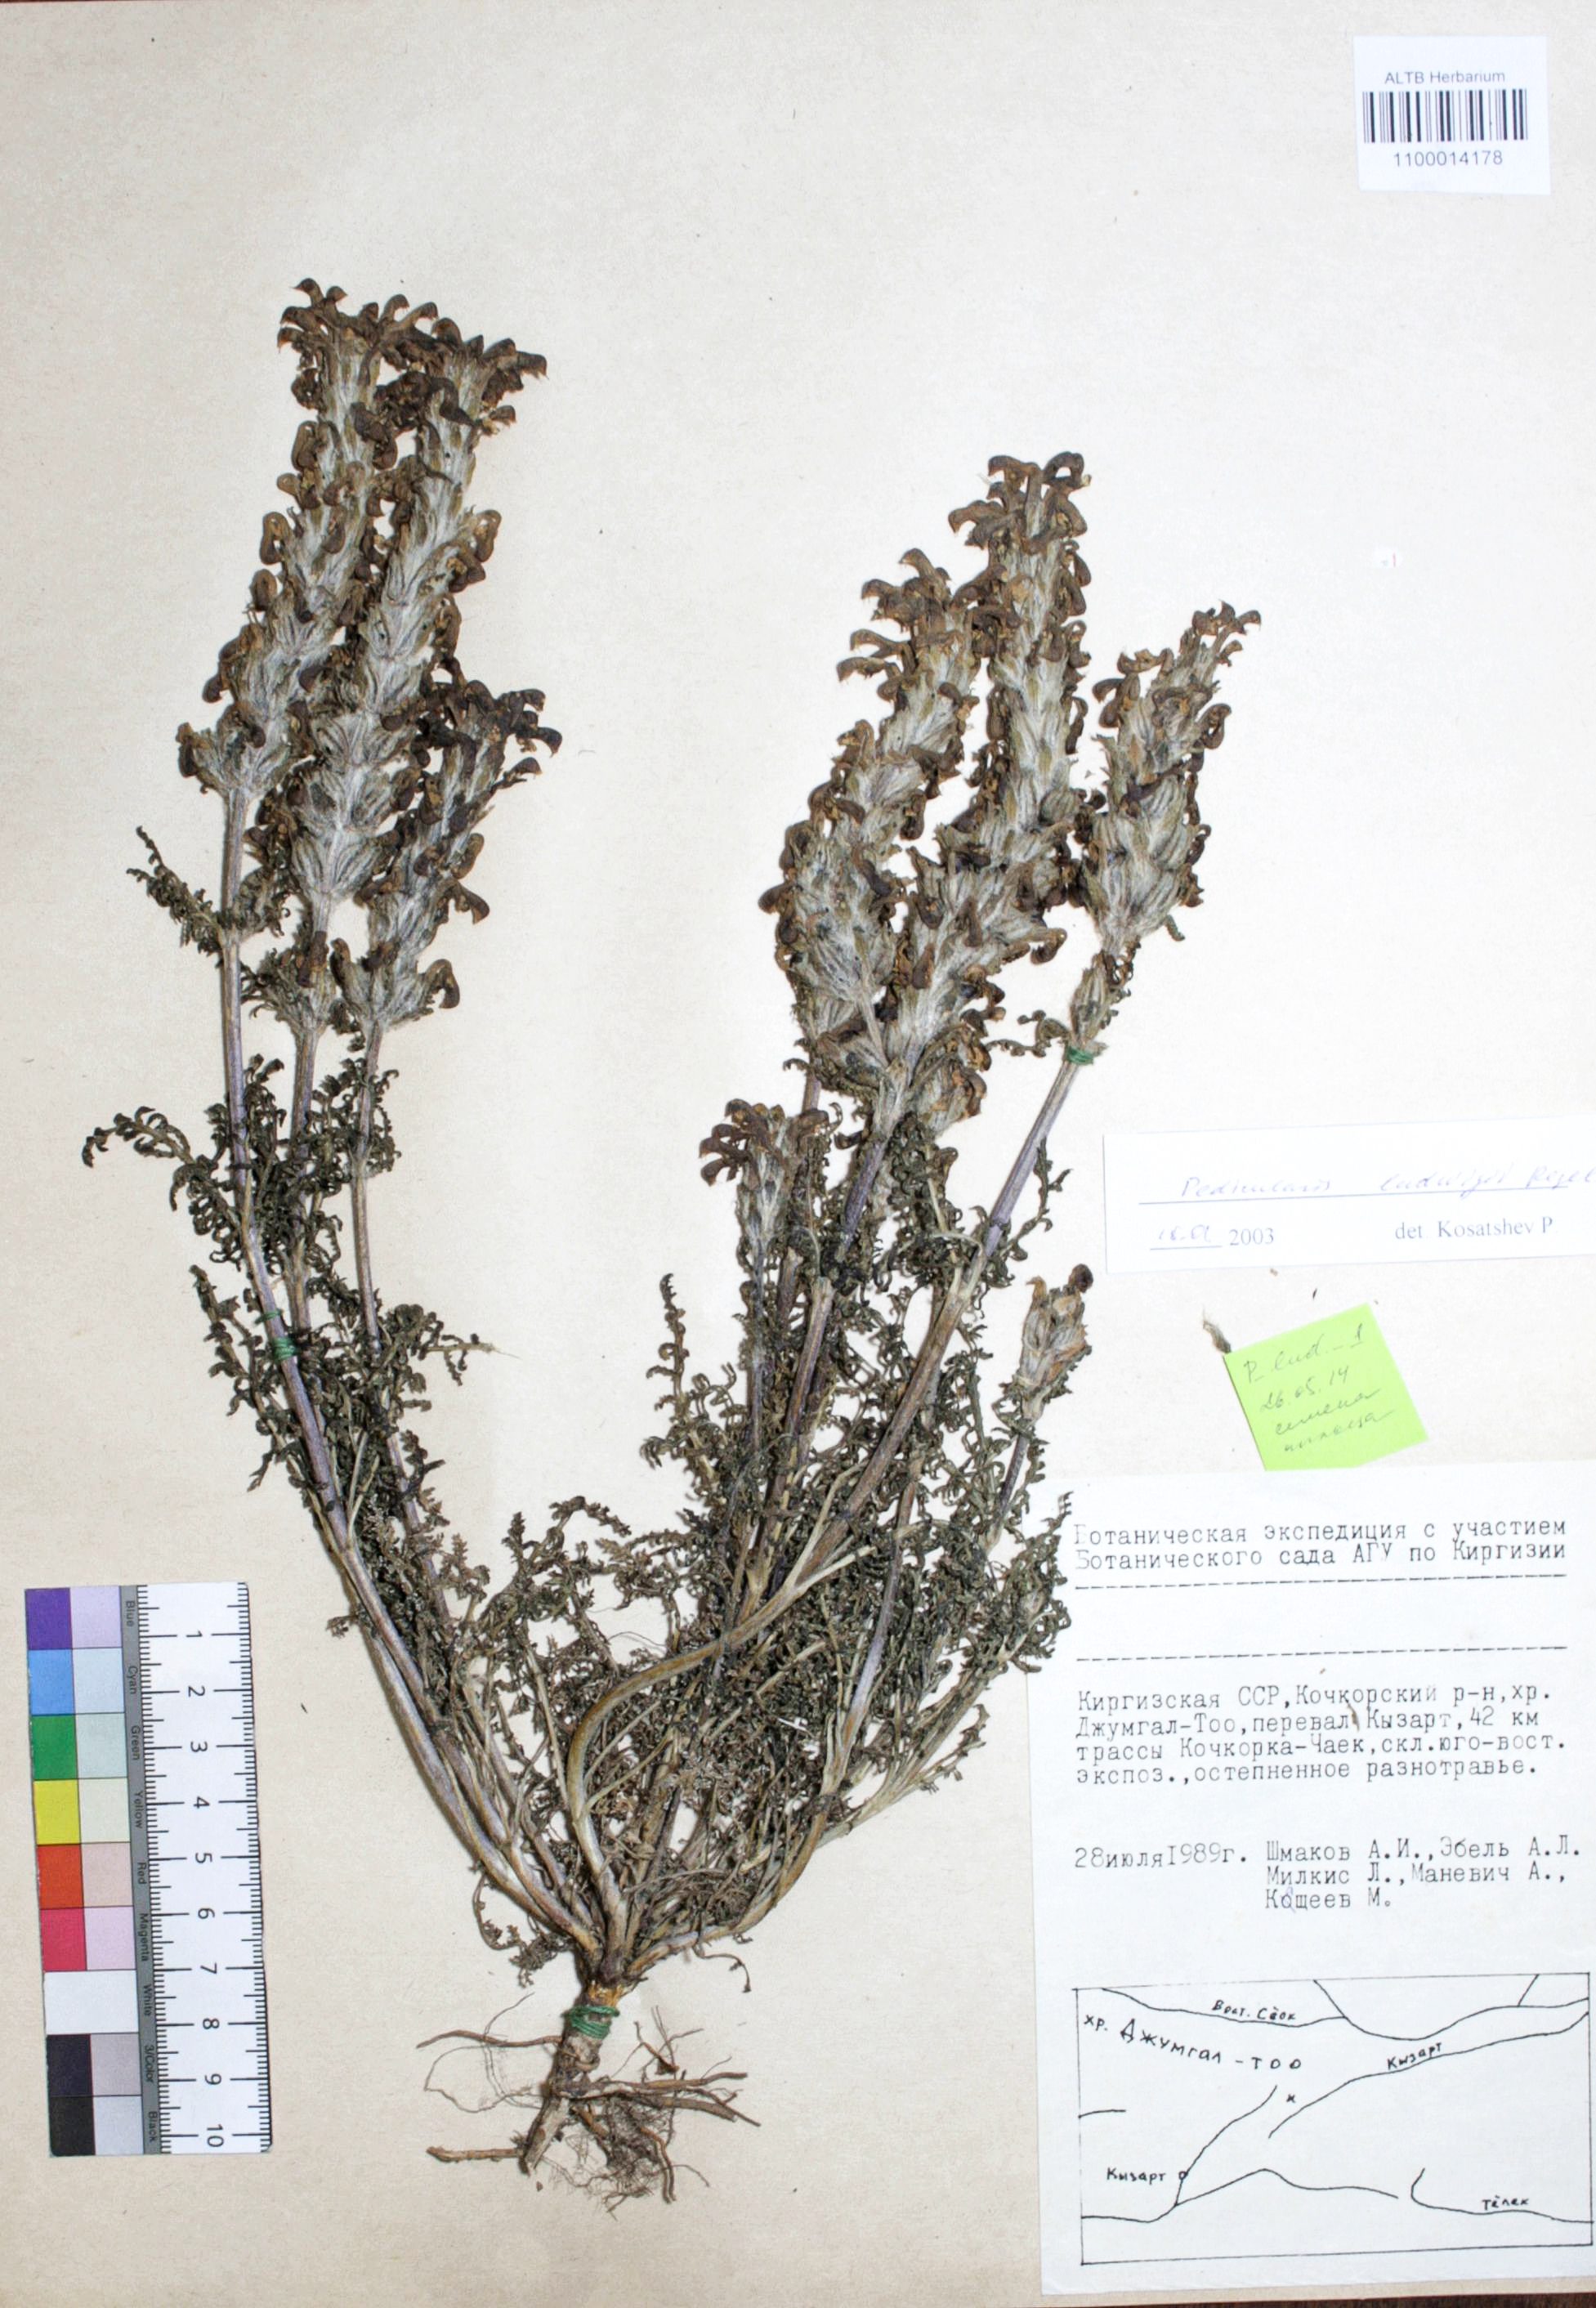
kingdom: Plantae
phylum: Tracheophyta
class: Magnoliopsida
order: Lamiales
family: Orobanchaceae
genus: Pedicularis
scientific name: Pedicularis ludwigii
